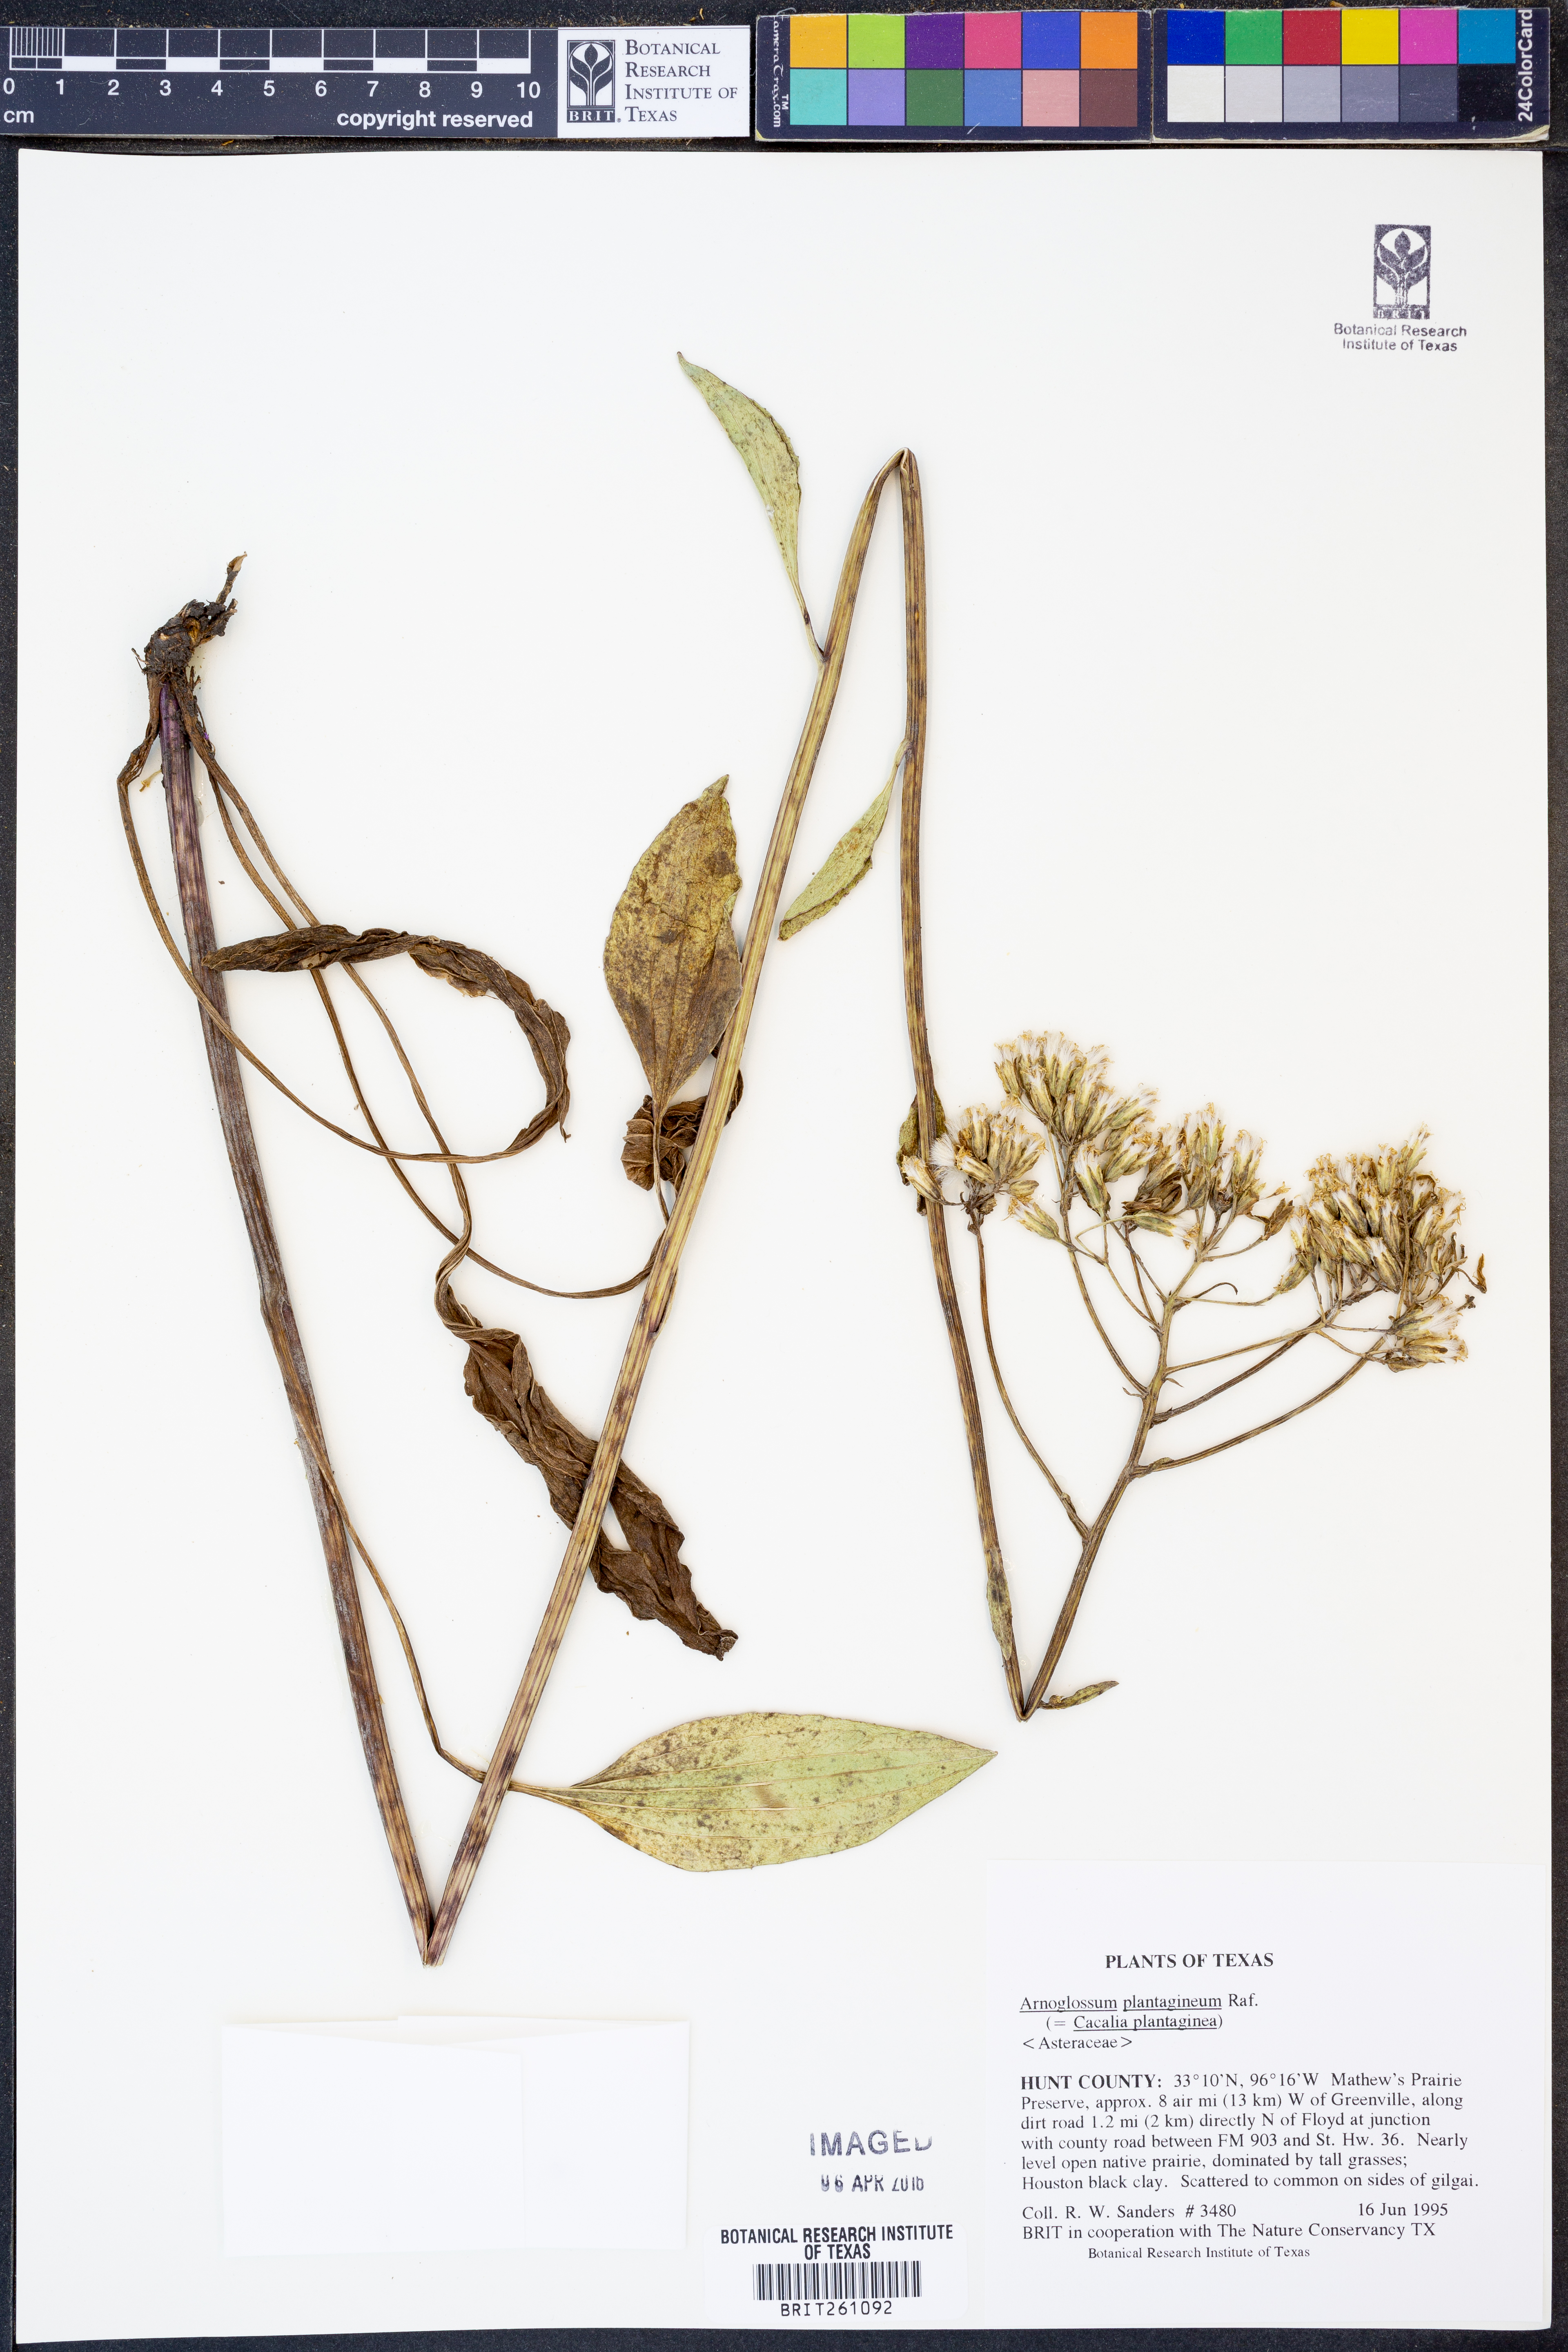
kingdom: Plantae
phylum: Tracheophyta
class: Magnoliopsida
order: Asterales
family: Asteraceae
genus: Arnoglossum
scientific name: Arnoglossum plantagineum
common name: Groove-stemmed indian-plantain
